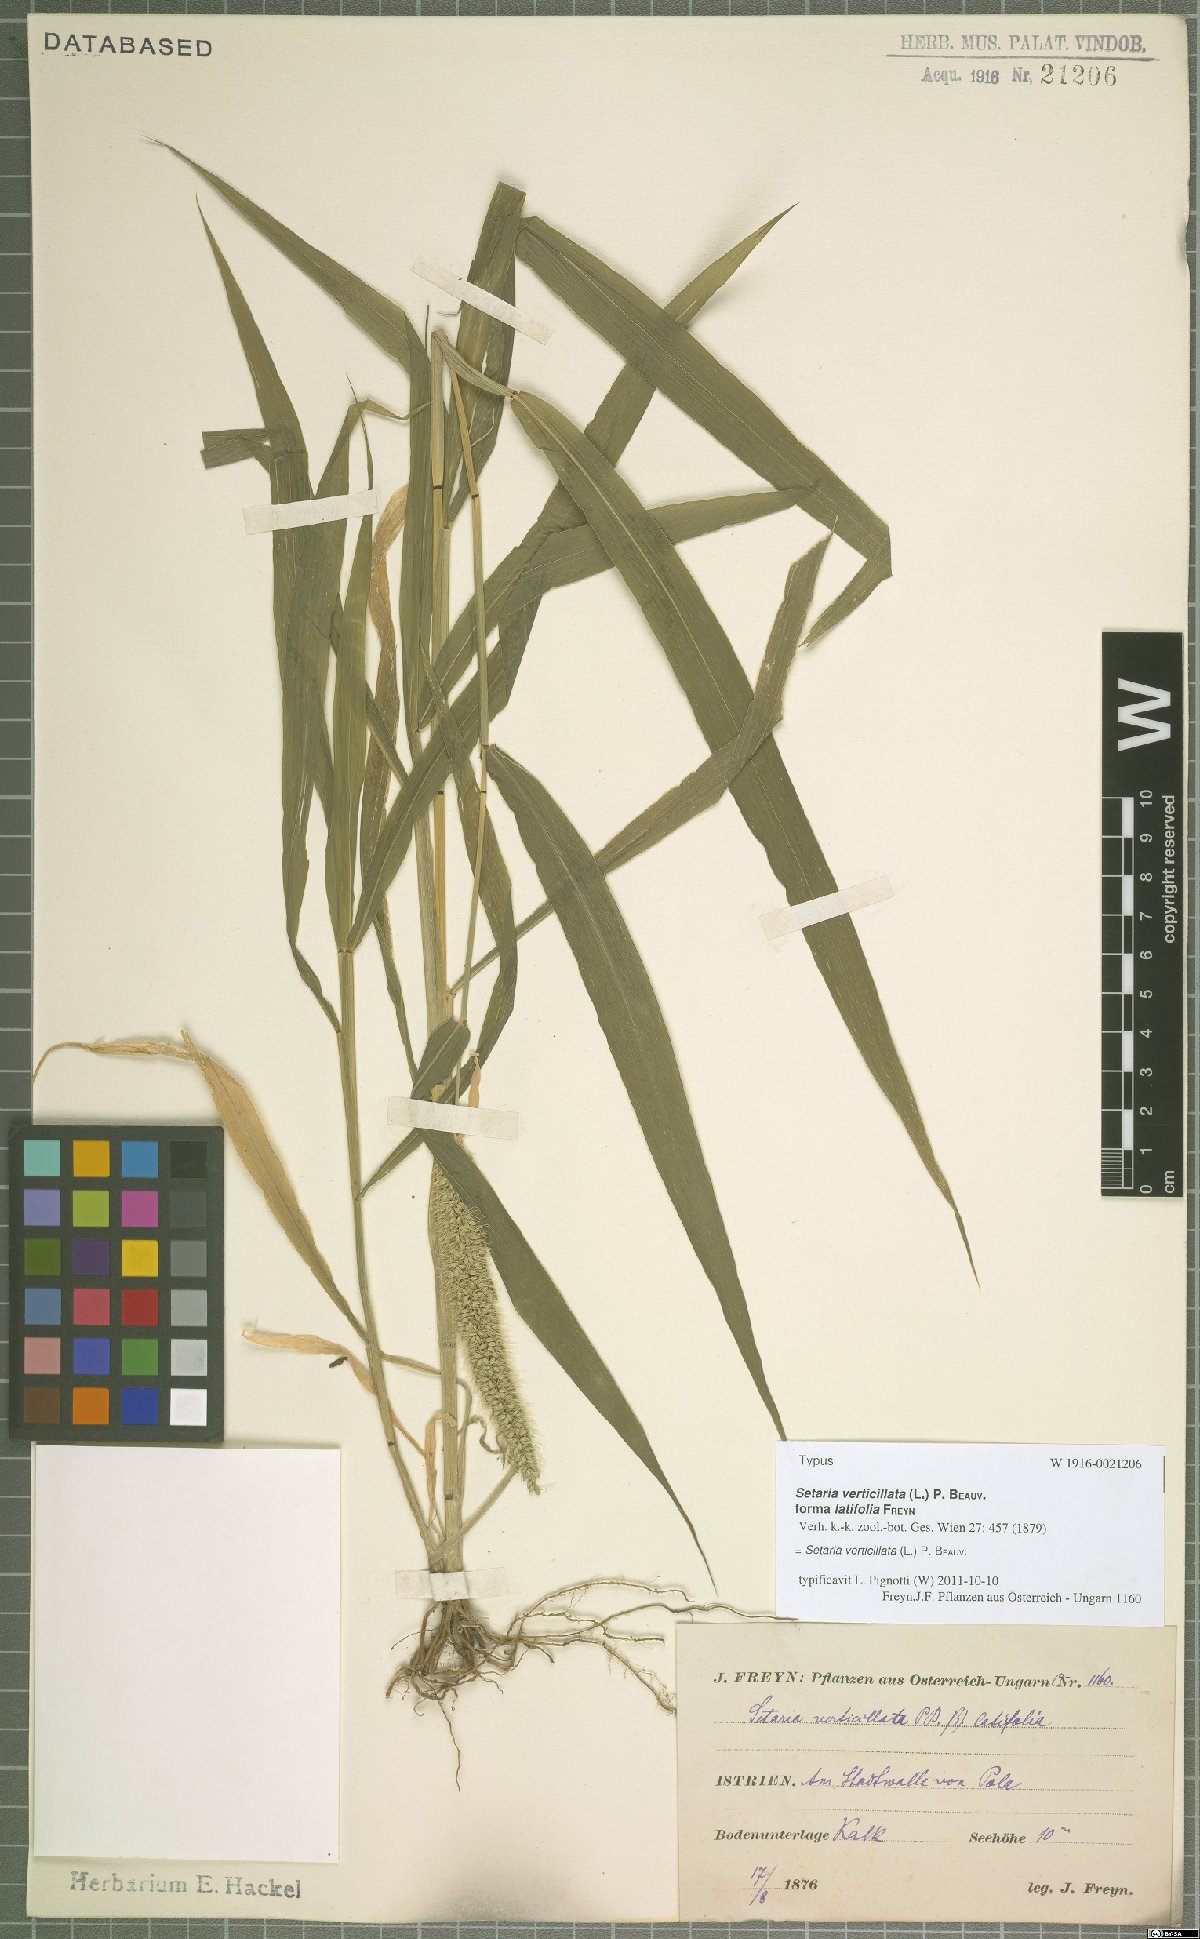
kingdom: Plantae
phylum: Tracheophyta
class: Liliopsida
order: Poales
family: Poaceae
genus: Setaria
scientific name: Setaria verticillata
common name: Hooked bristlegrass
